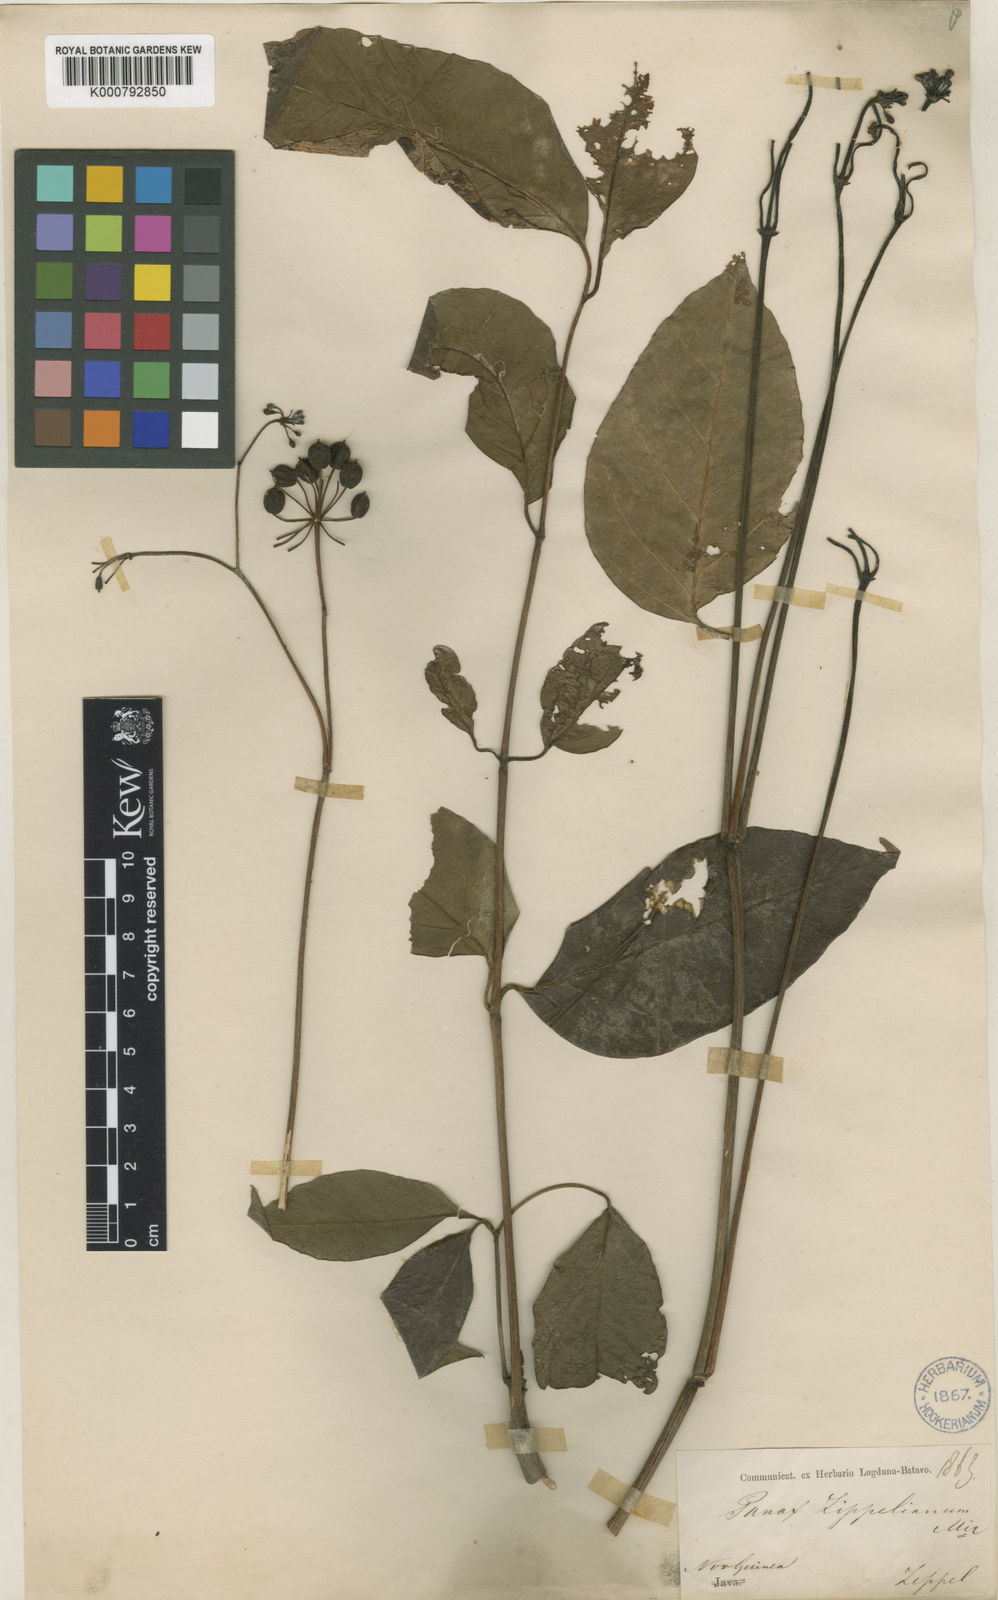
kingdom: Plantae
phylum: Tracheophyta
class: Magnoliopsida
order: Apiales
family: Araliaceae
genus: Polyscias
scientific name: Polyscias zippeliana
